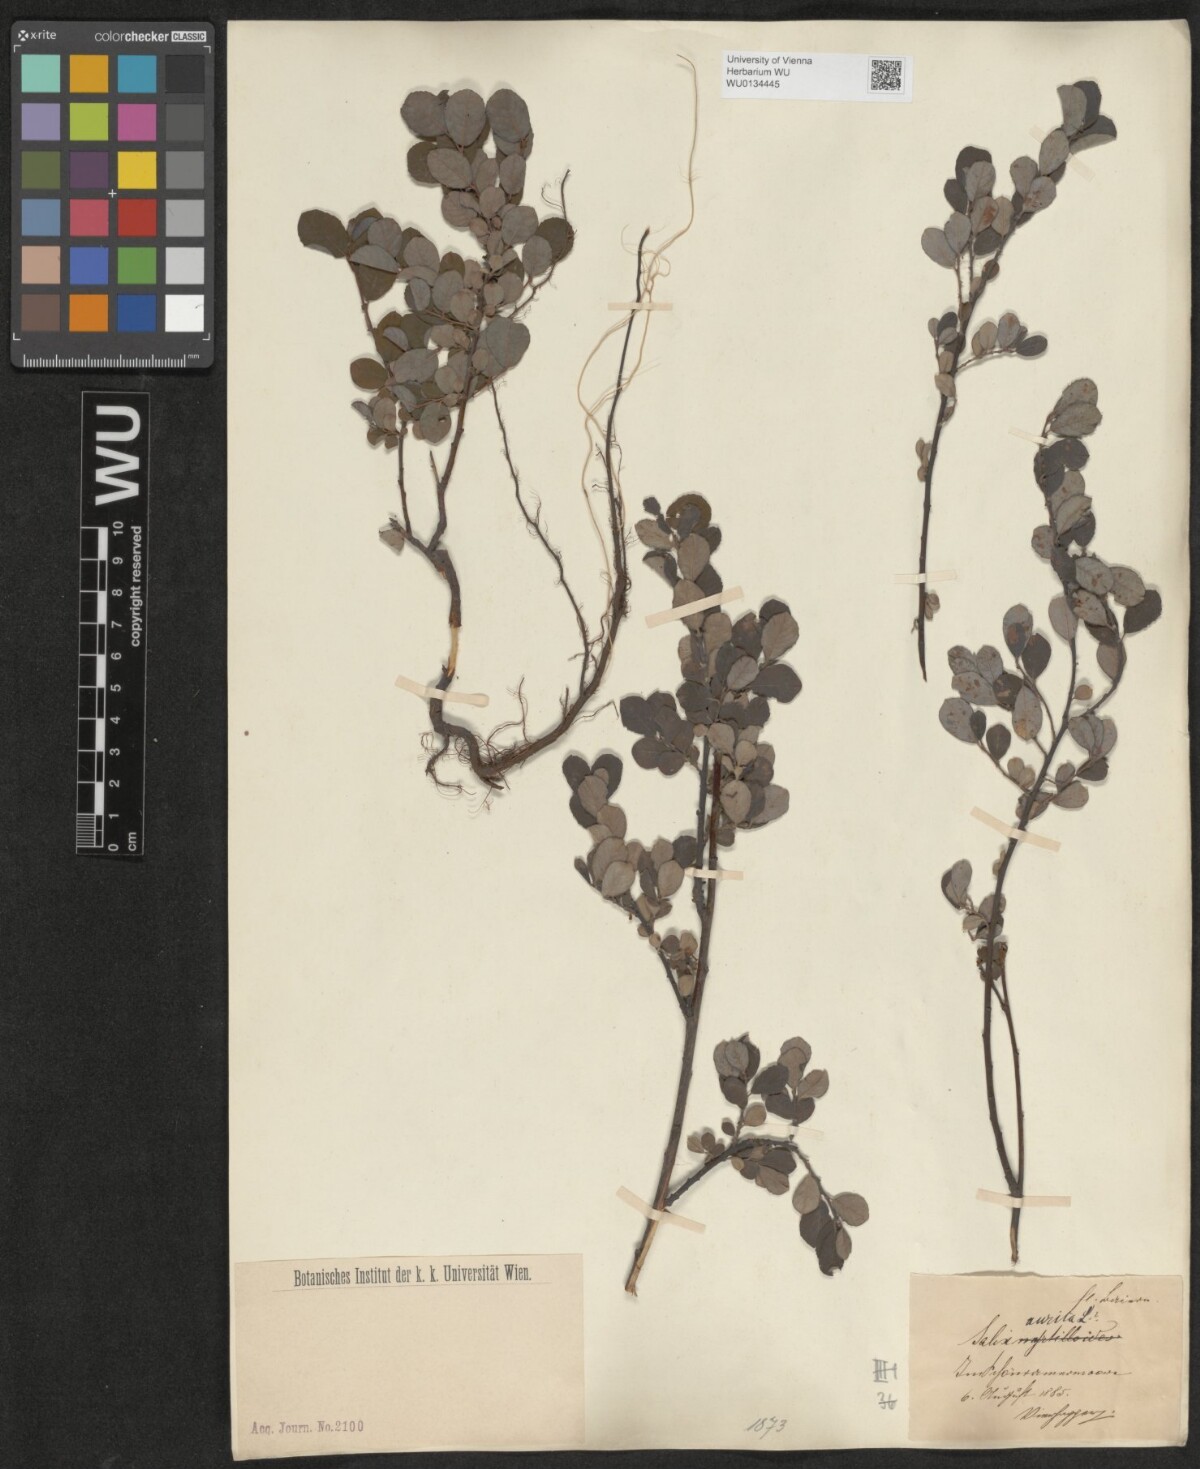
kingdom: Plantae
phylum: Tracheophyta
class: Magnoliopsida
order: Malpighiales
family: Salicaceae
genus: Salix
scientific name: Salix aurita
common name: Eared willow
